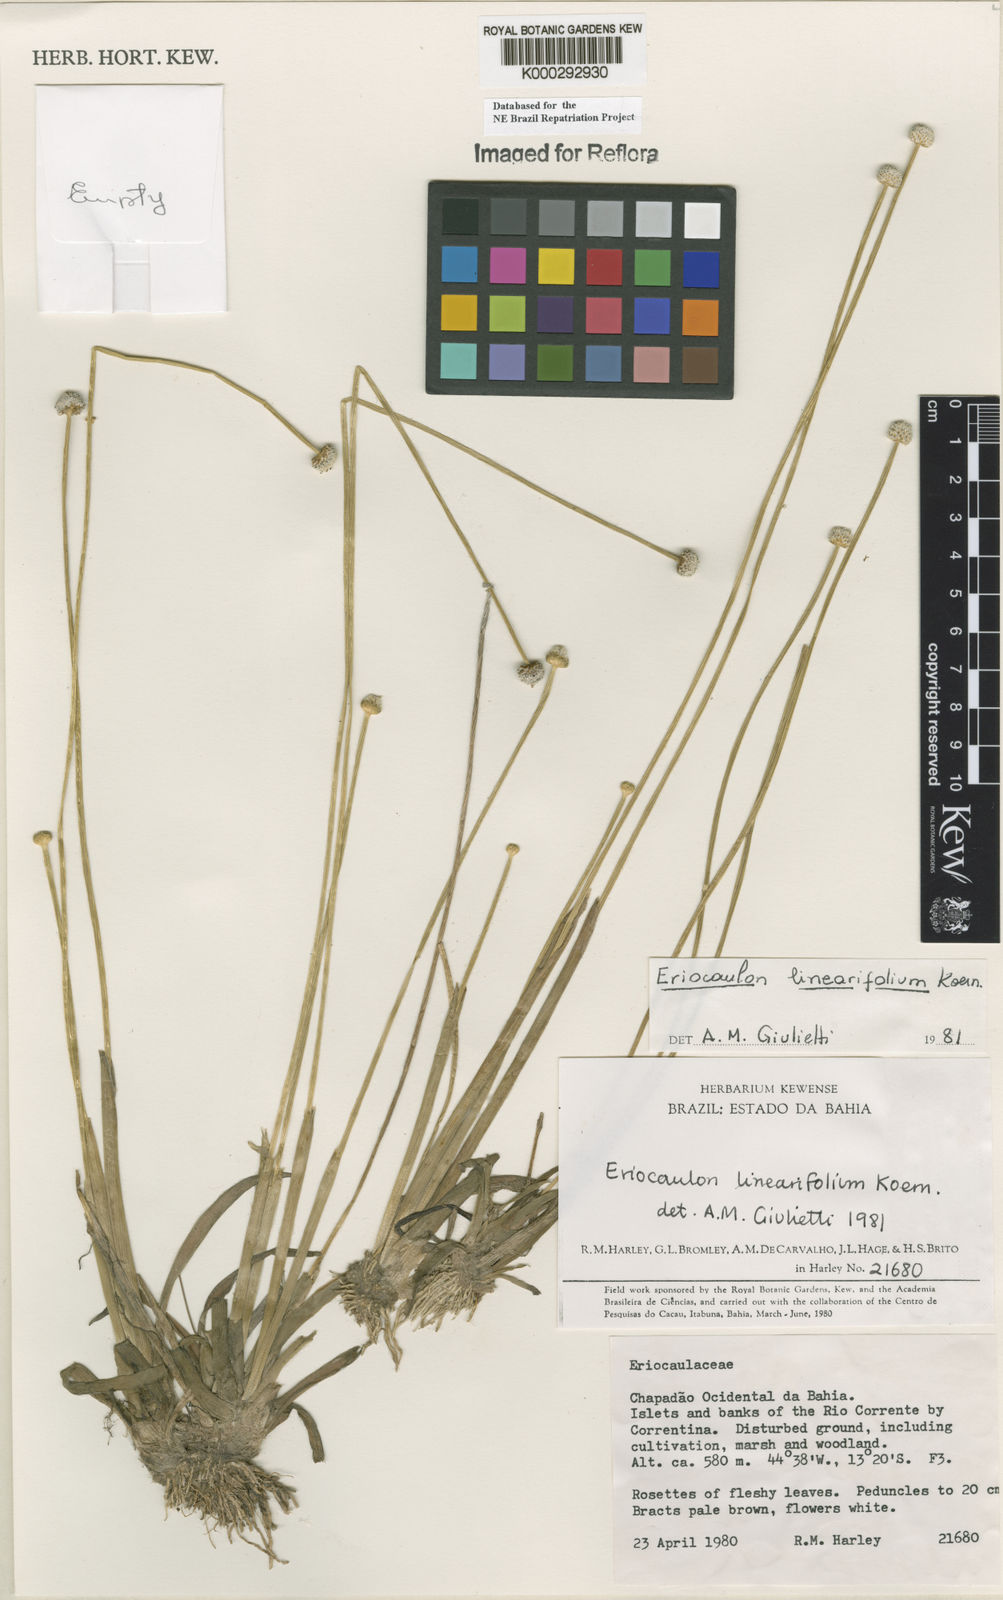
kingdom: Plantae
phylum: Tracheophyta
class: Liliopsida
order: Poales
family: Eriocaulaceae
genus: Eriocaulon
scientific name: Eriocaulon
